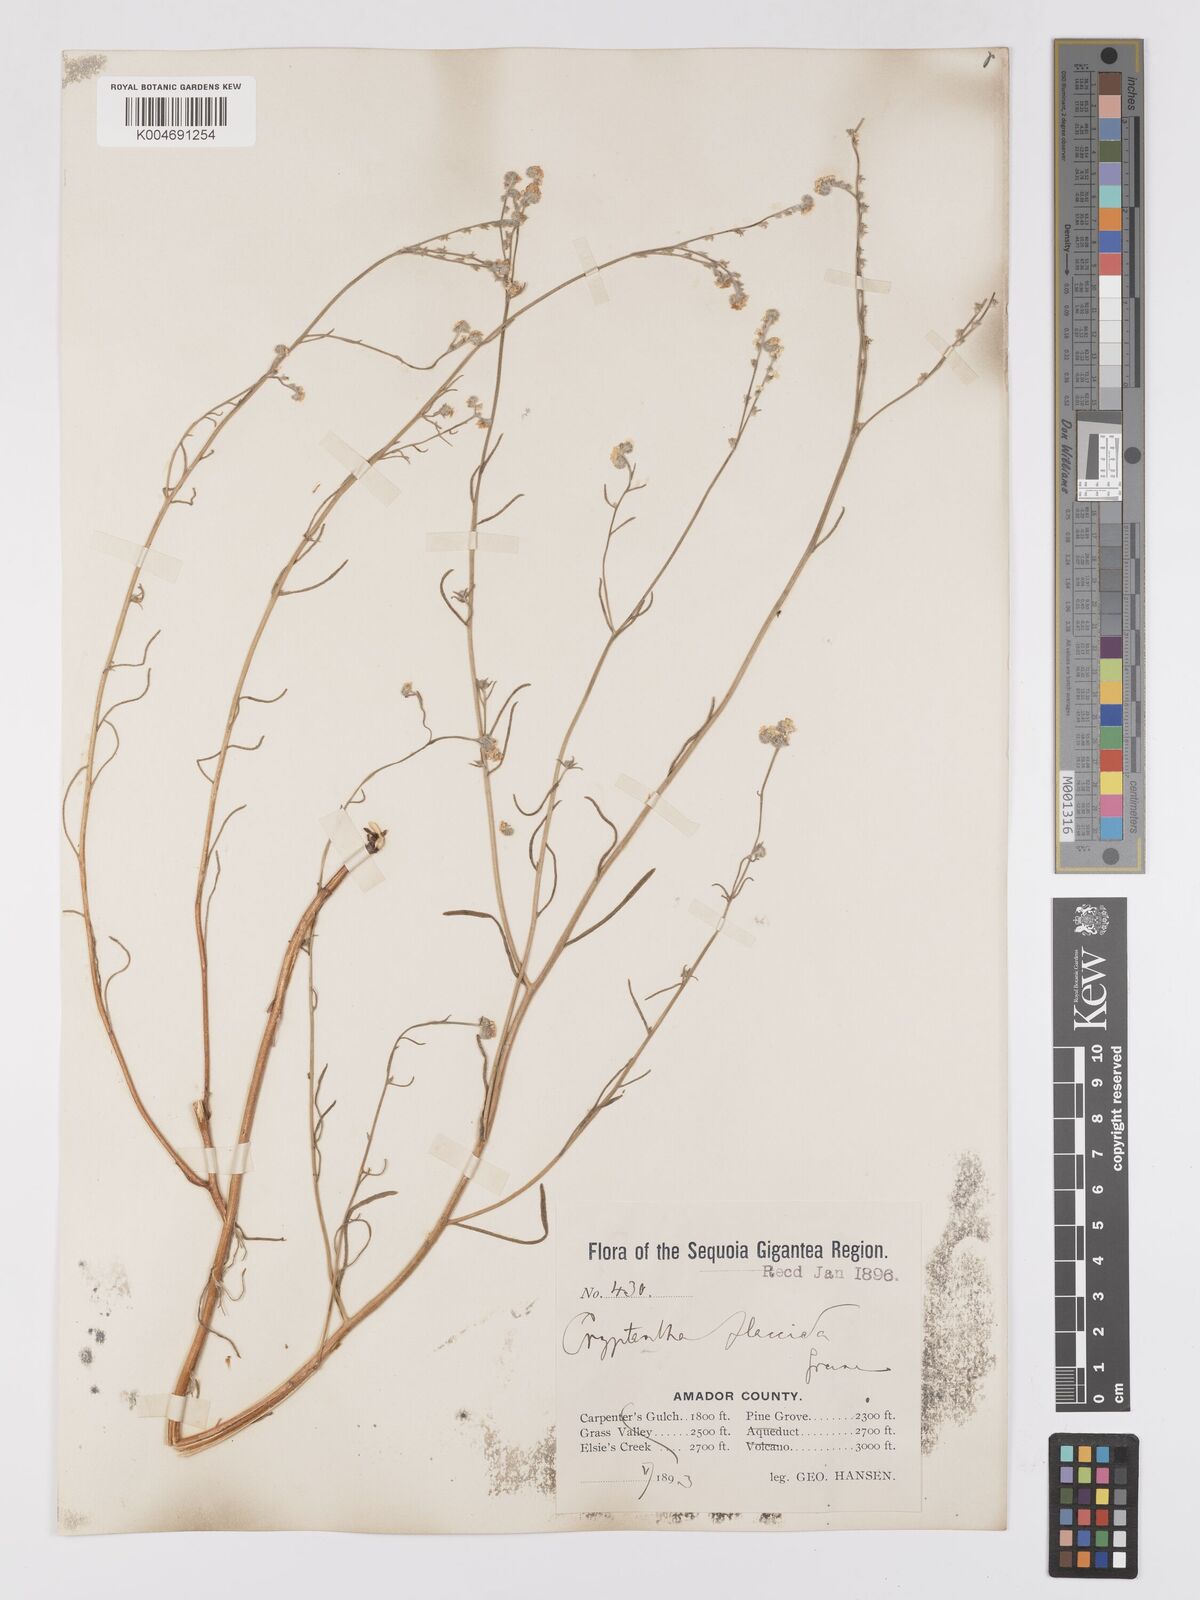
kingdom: Plantae
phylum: Tracheophyta
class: Magnoliopsida
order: Boraginales
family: Boraginaceae
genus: Cryptantha
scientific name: Cryptantha flaccida
